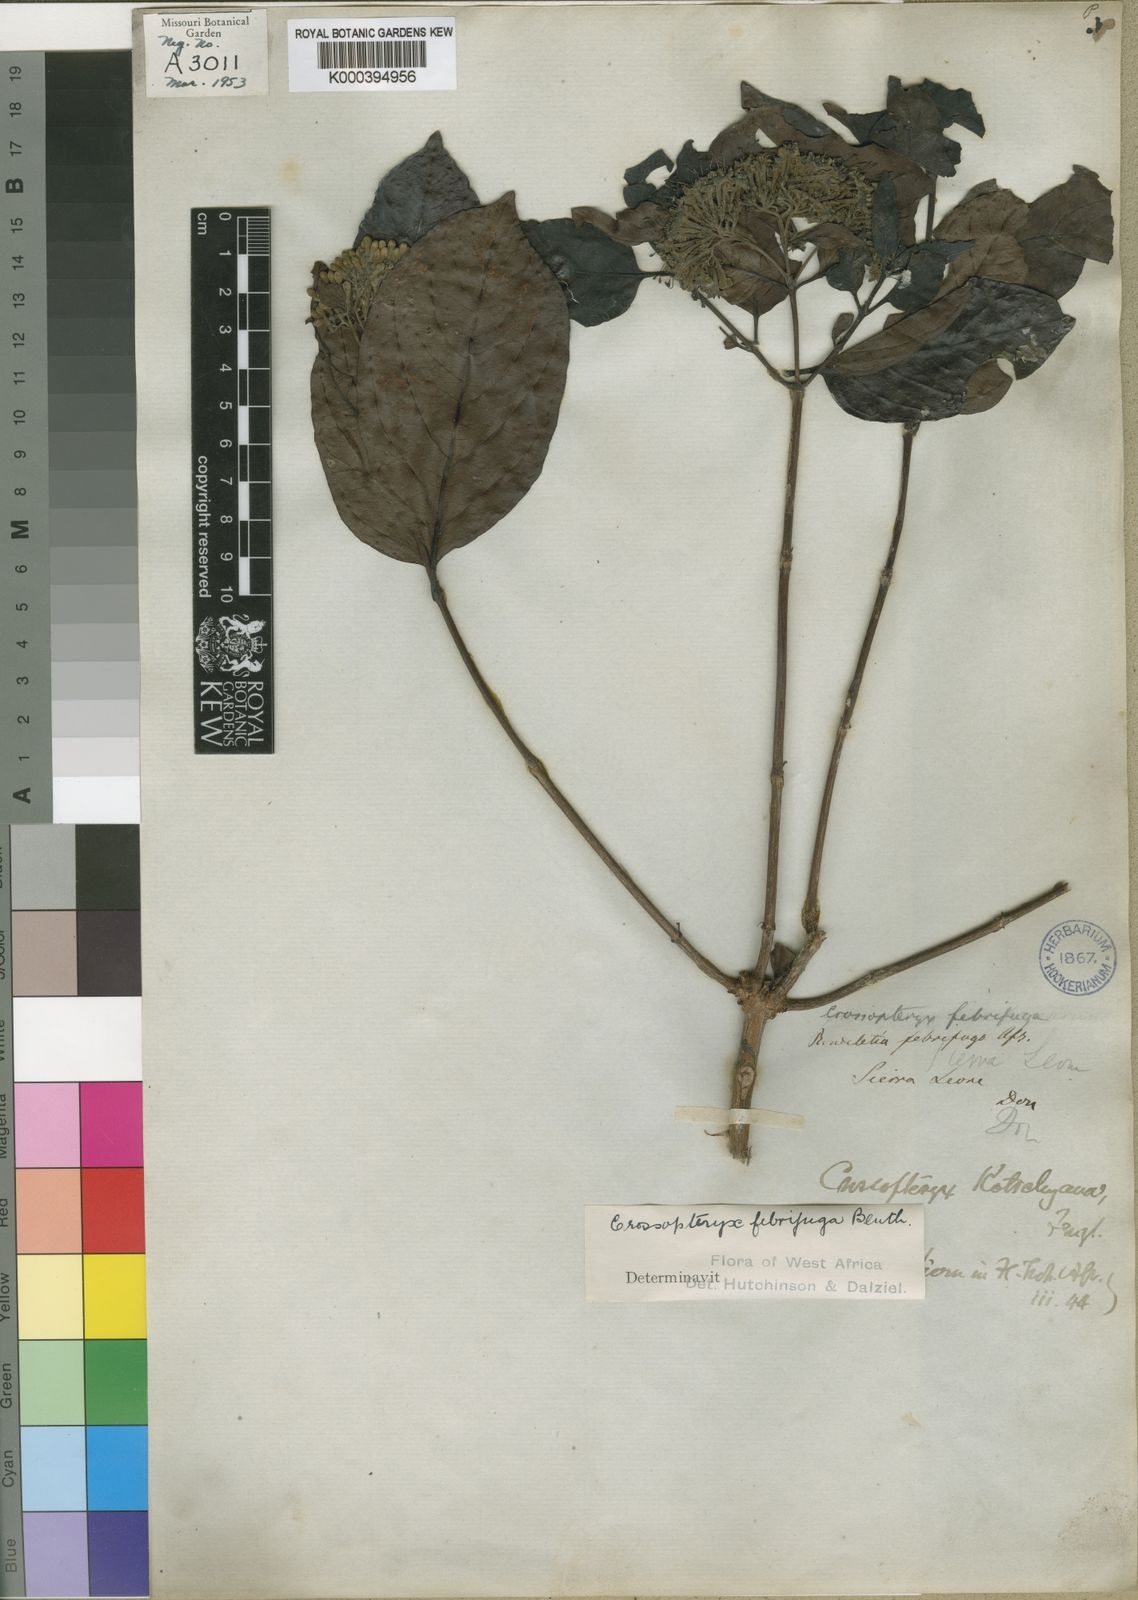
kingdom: Plantae
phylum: Tracheophyta
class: Magnoliopsida
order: Gentianales
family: Rubiaceae
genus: Crossopteryx
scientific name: Crossopteryx febrifuga
